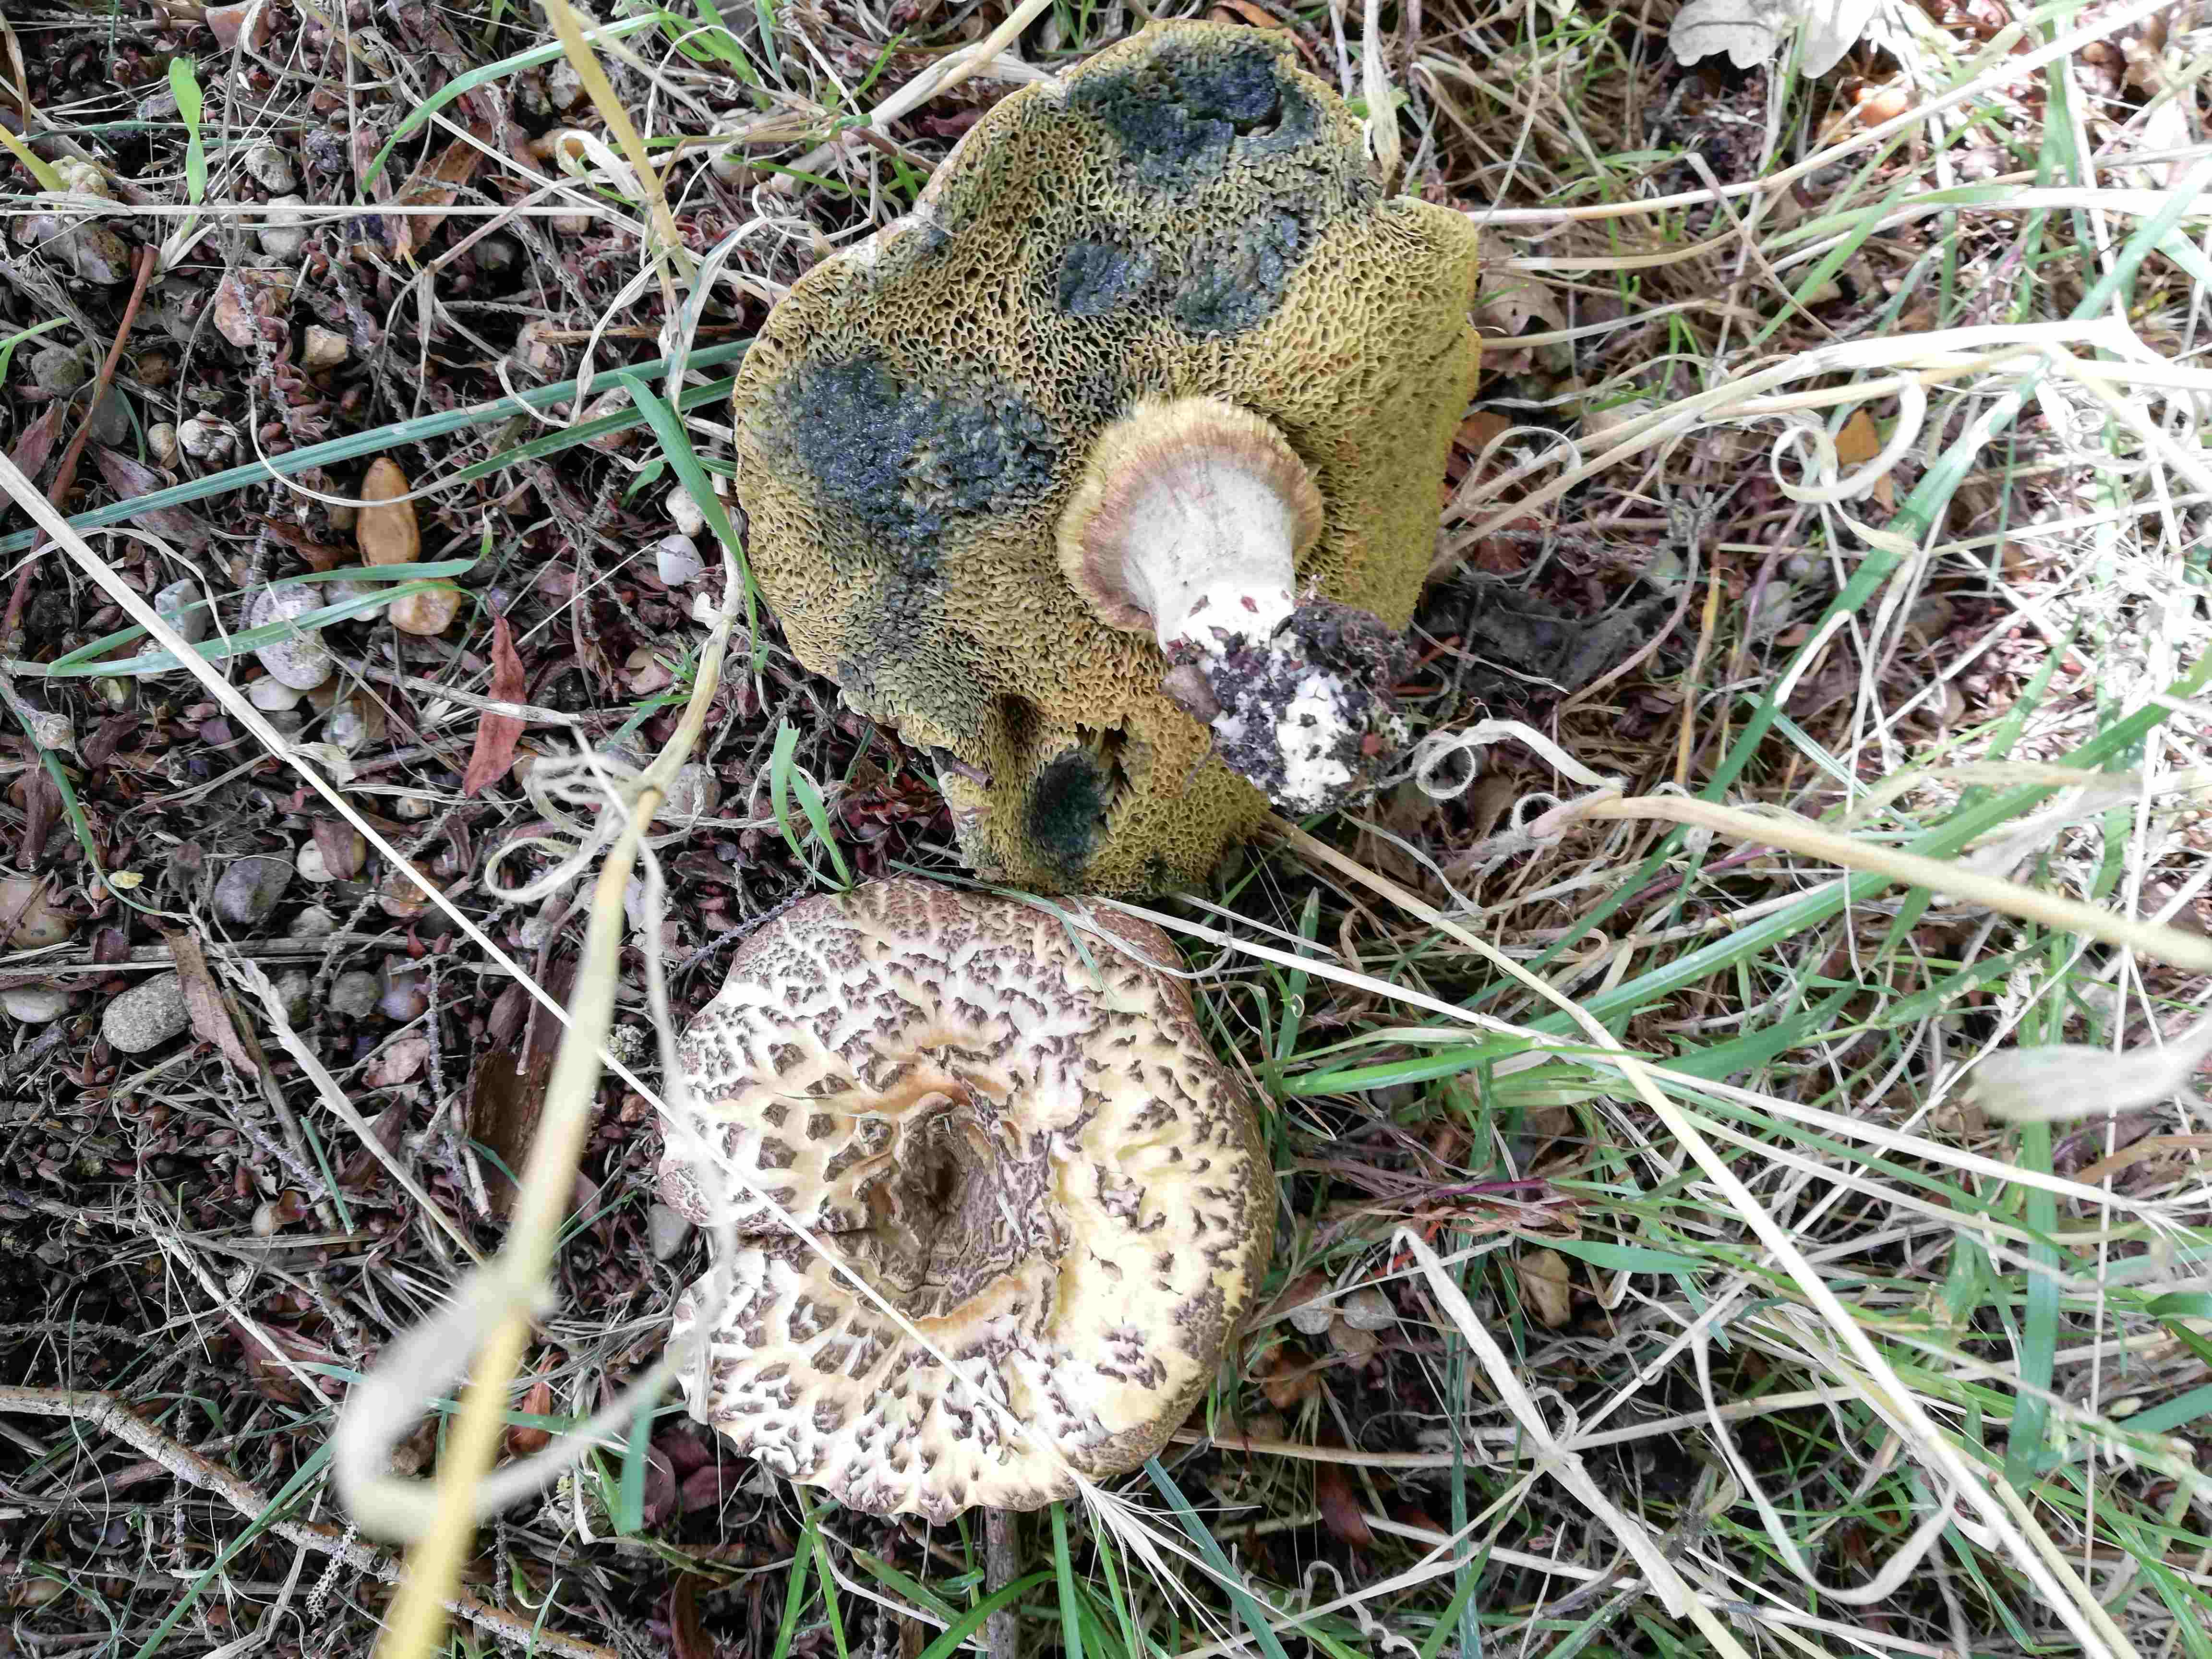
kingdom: Fungi
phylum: Basidiomycota
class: Agaricomycetes
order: Boletales
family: Boletaceae
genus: Xerocomellus
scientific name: Xerocomellus porosporus
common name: hvidsprukken rørhat
